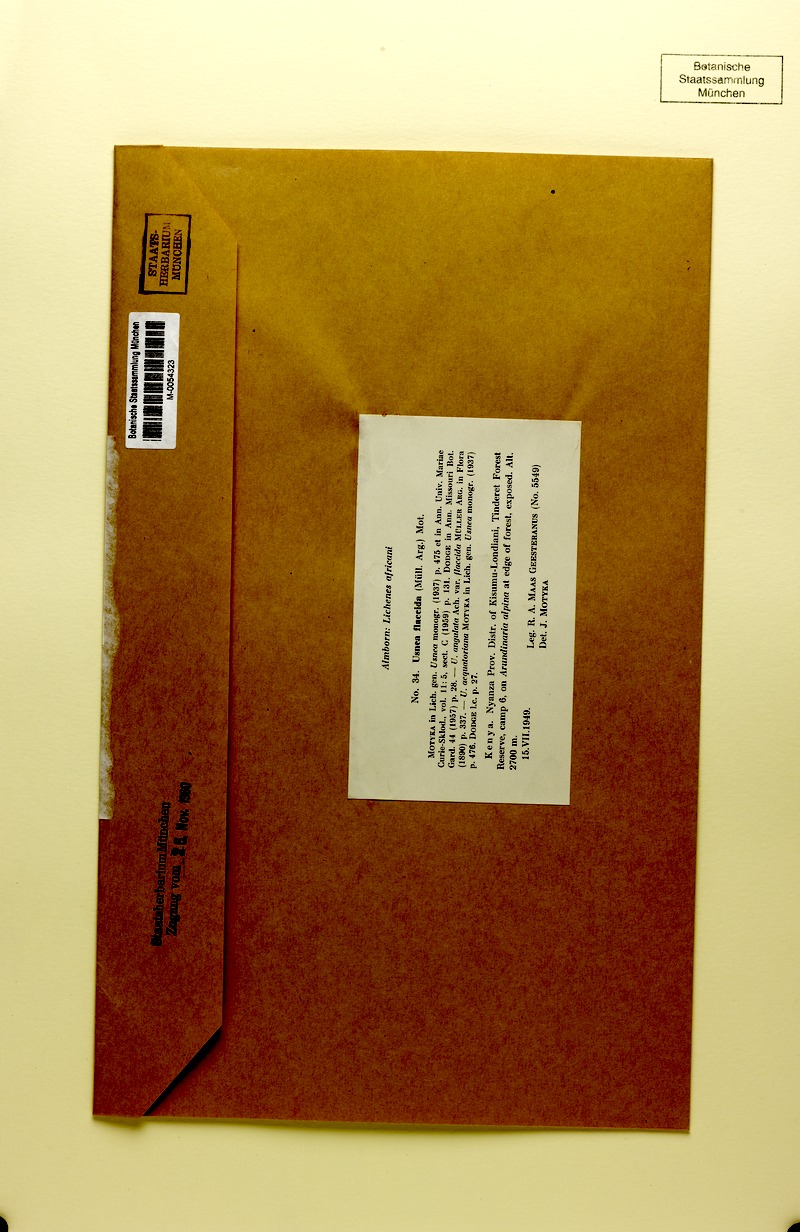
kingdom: Fungi
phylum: Ascomycota
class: Lecanoromycetes
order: Lecanorales
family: Parmeliaceae
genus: Xanthoparmelia
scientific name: Xanthoparmelia amplexula
